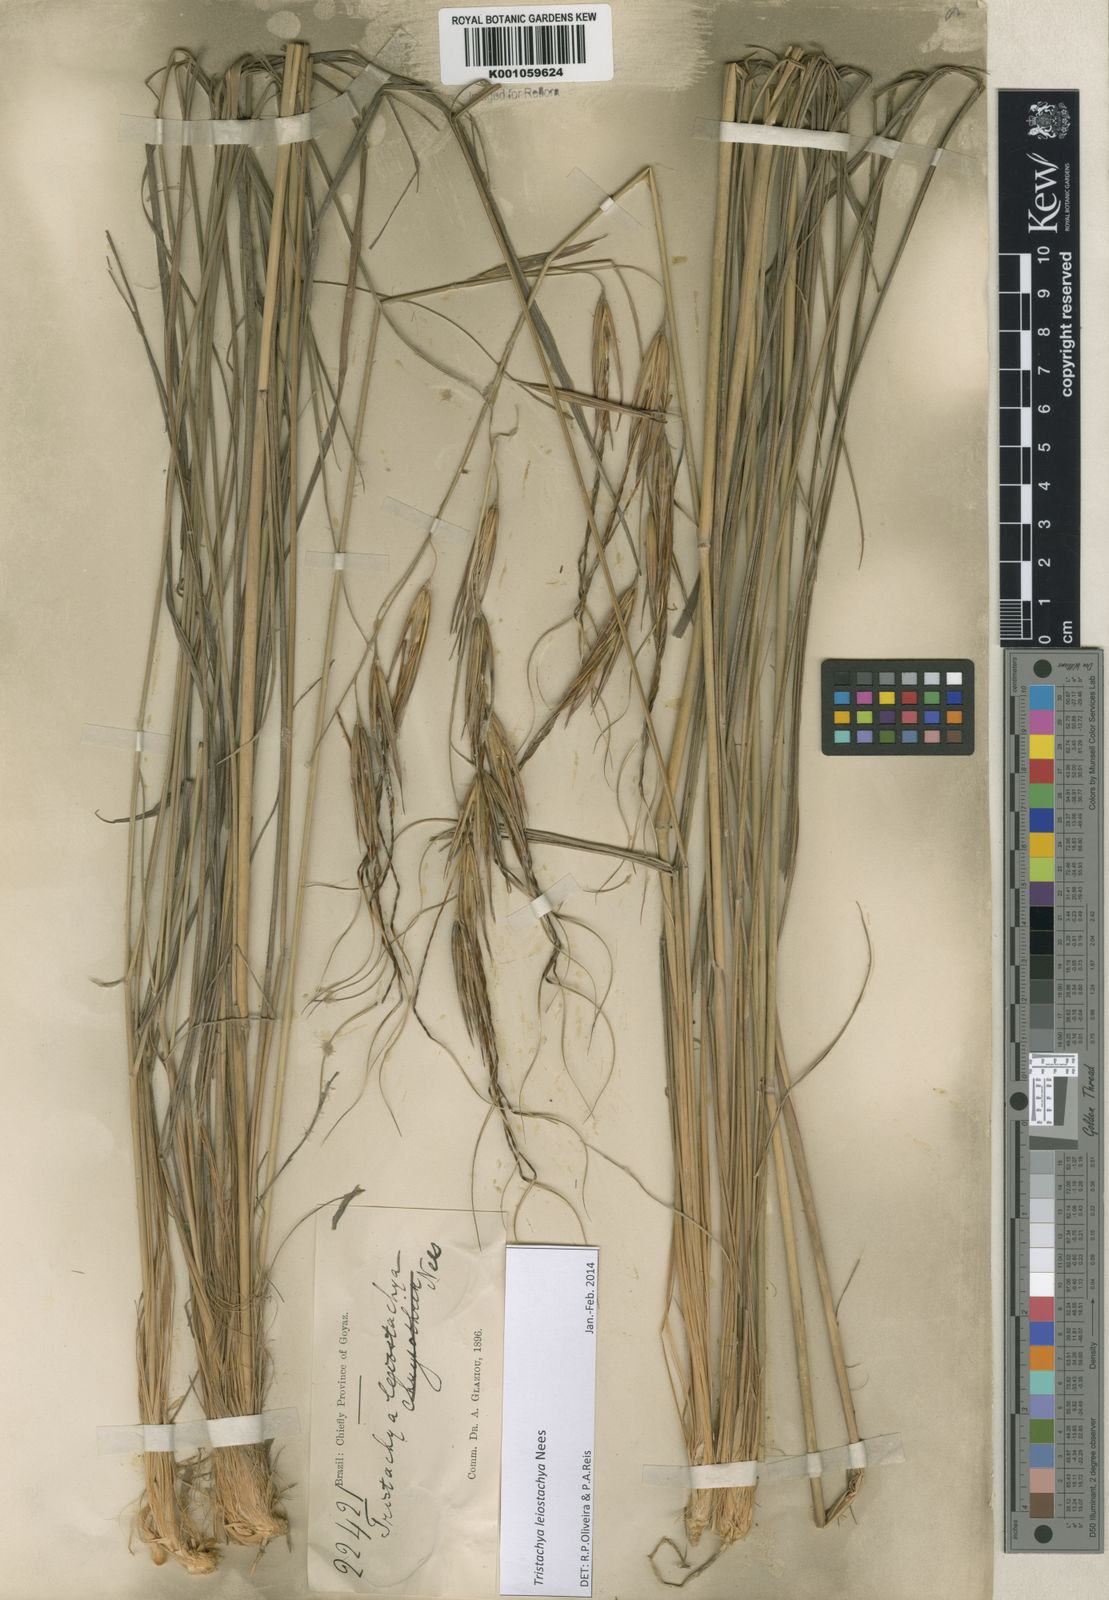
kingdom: Plantae
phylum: Tracheophyta
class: Liliopsida
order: Poales
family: Poaceae
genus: Tristachya
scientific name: Tristachya leiostachya
